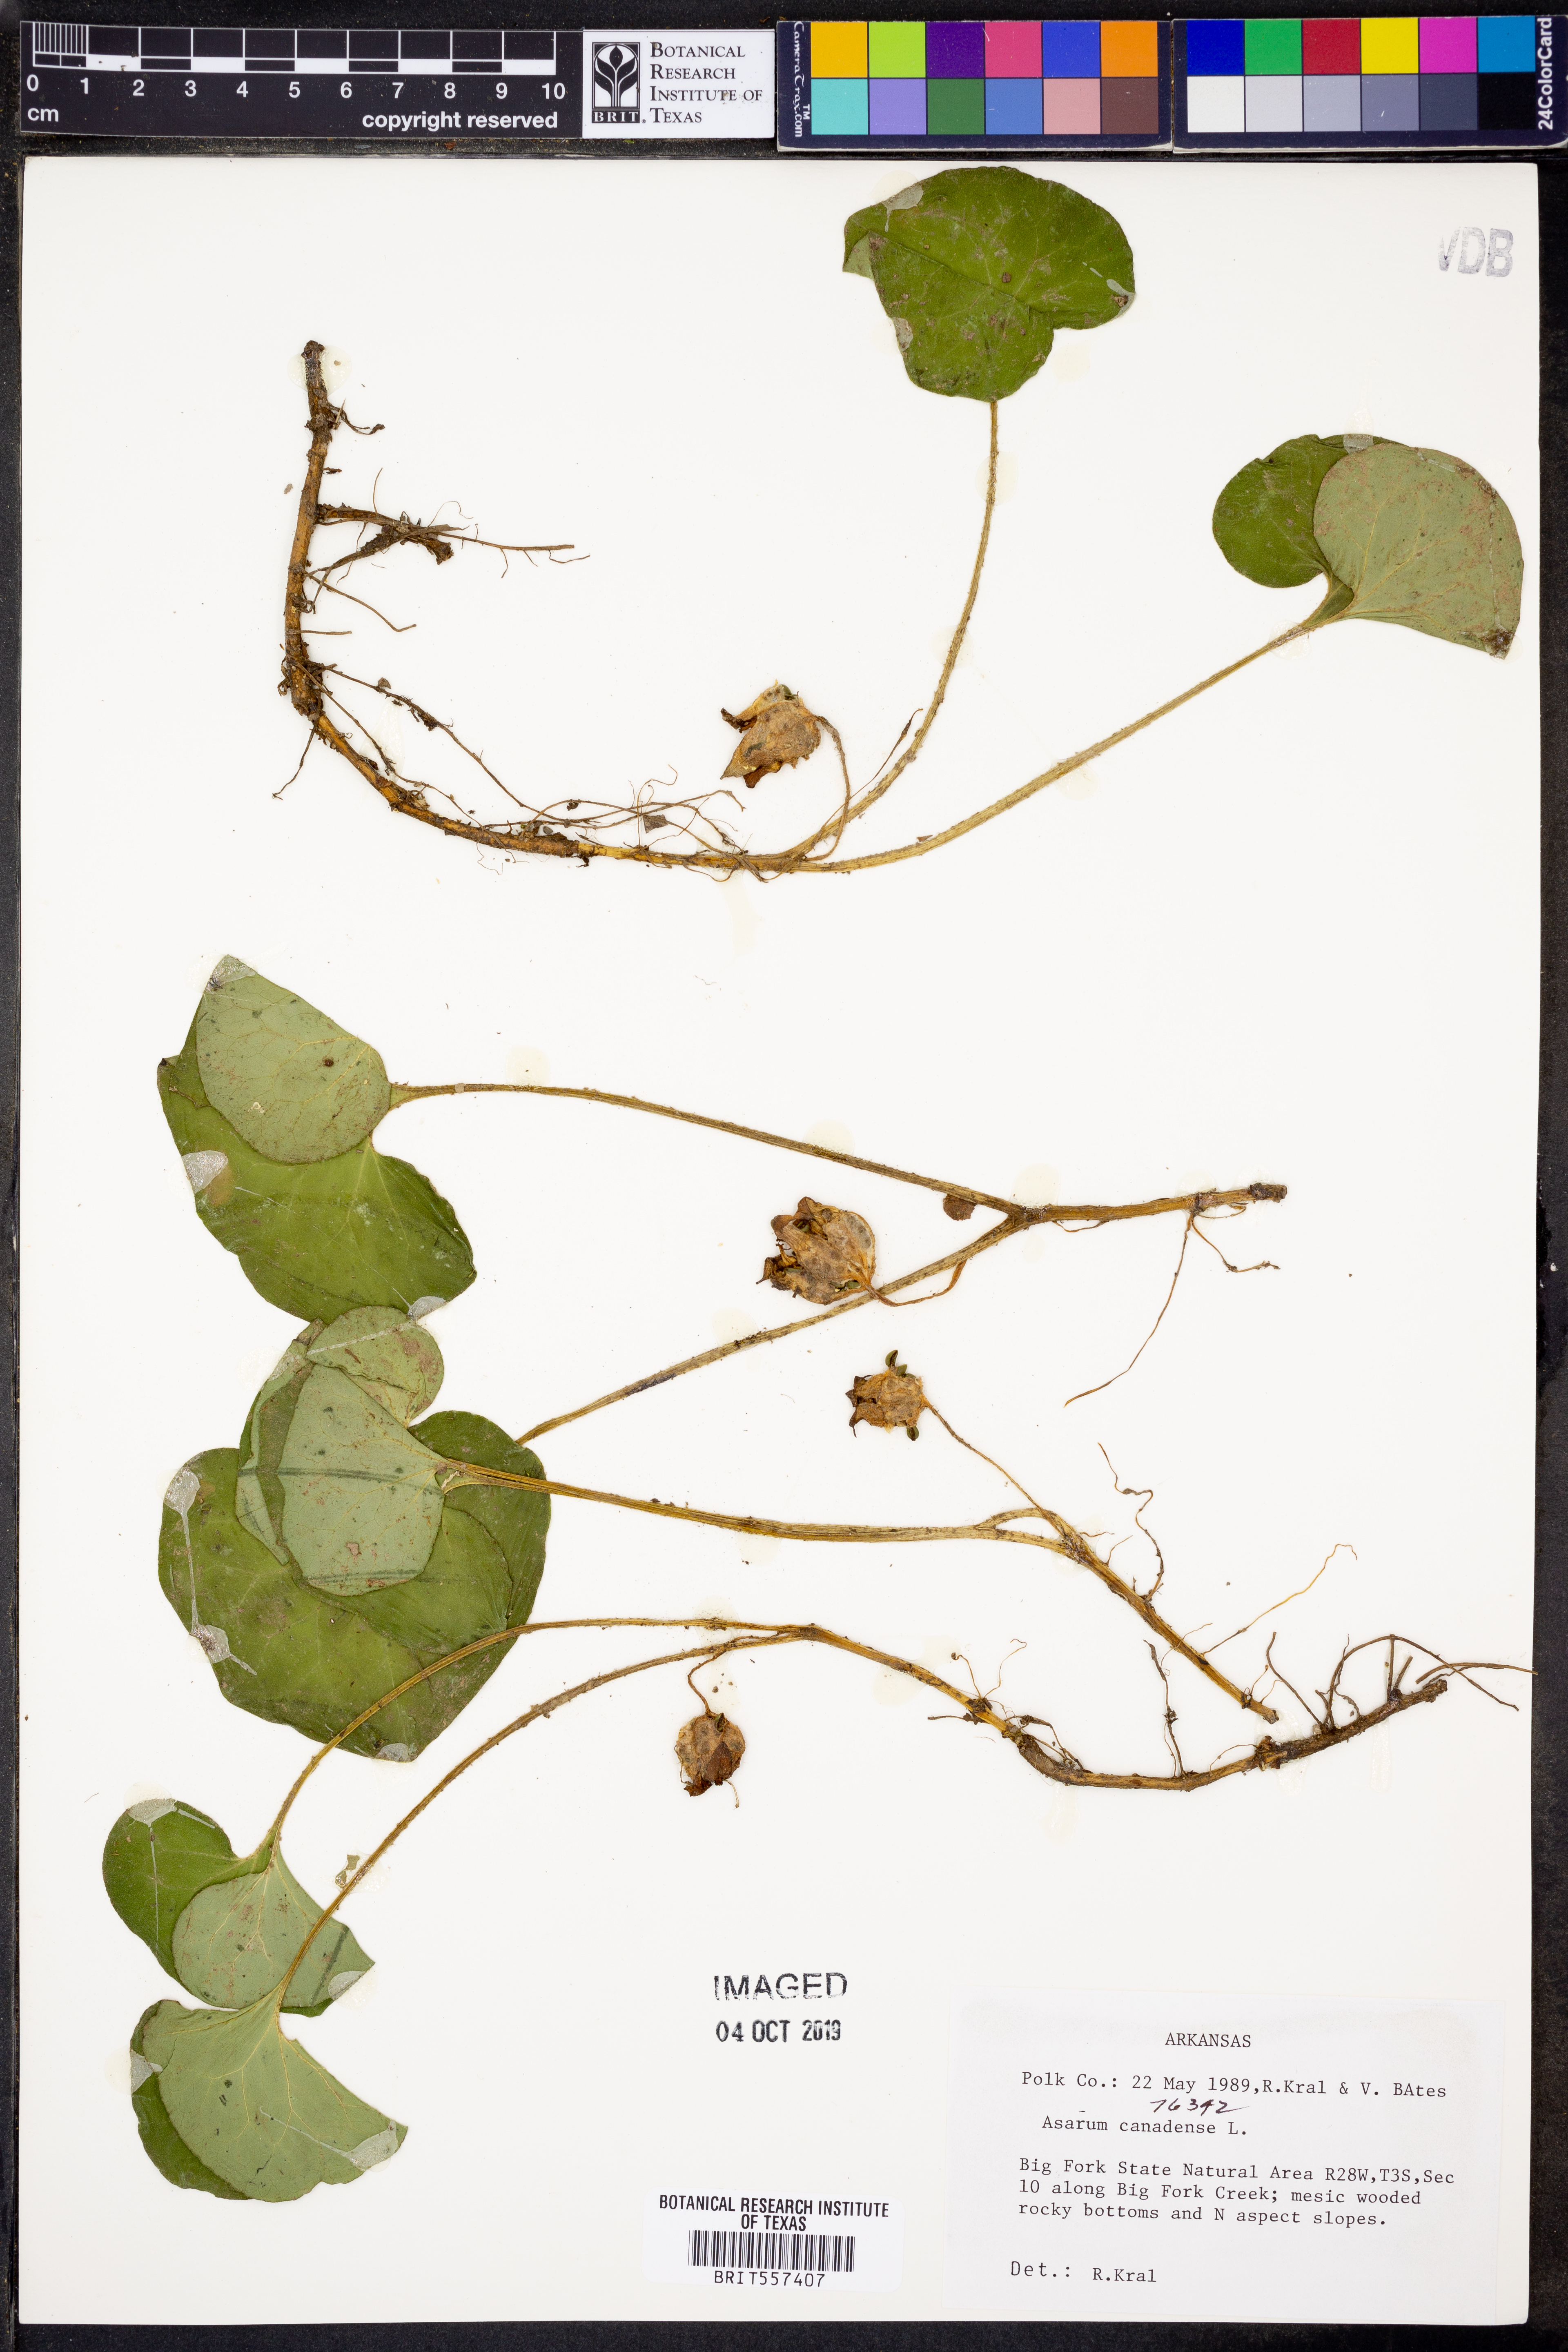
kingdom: Plantae
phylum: Tracheophyta
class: Magnoliopsida
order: Piperales
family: Aristolochiaceae
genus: Asarum
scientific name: Asarum canadense
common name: Wild ginger
